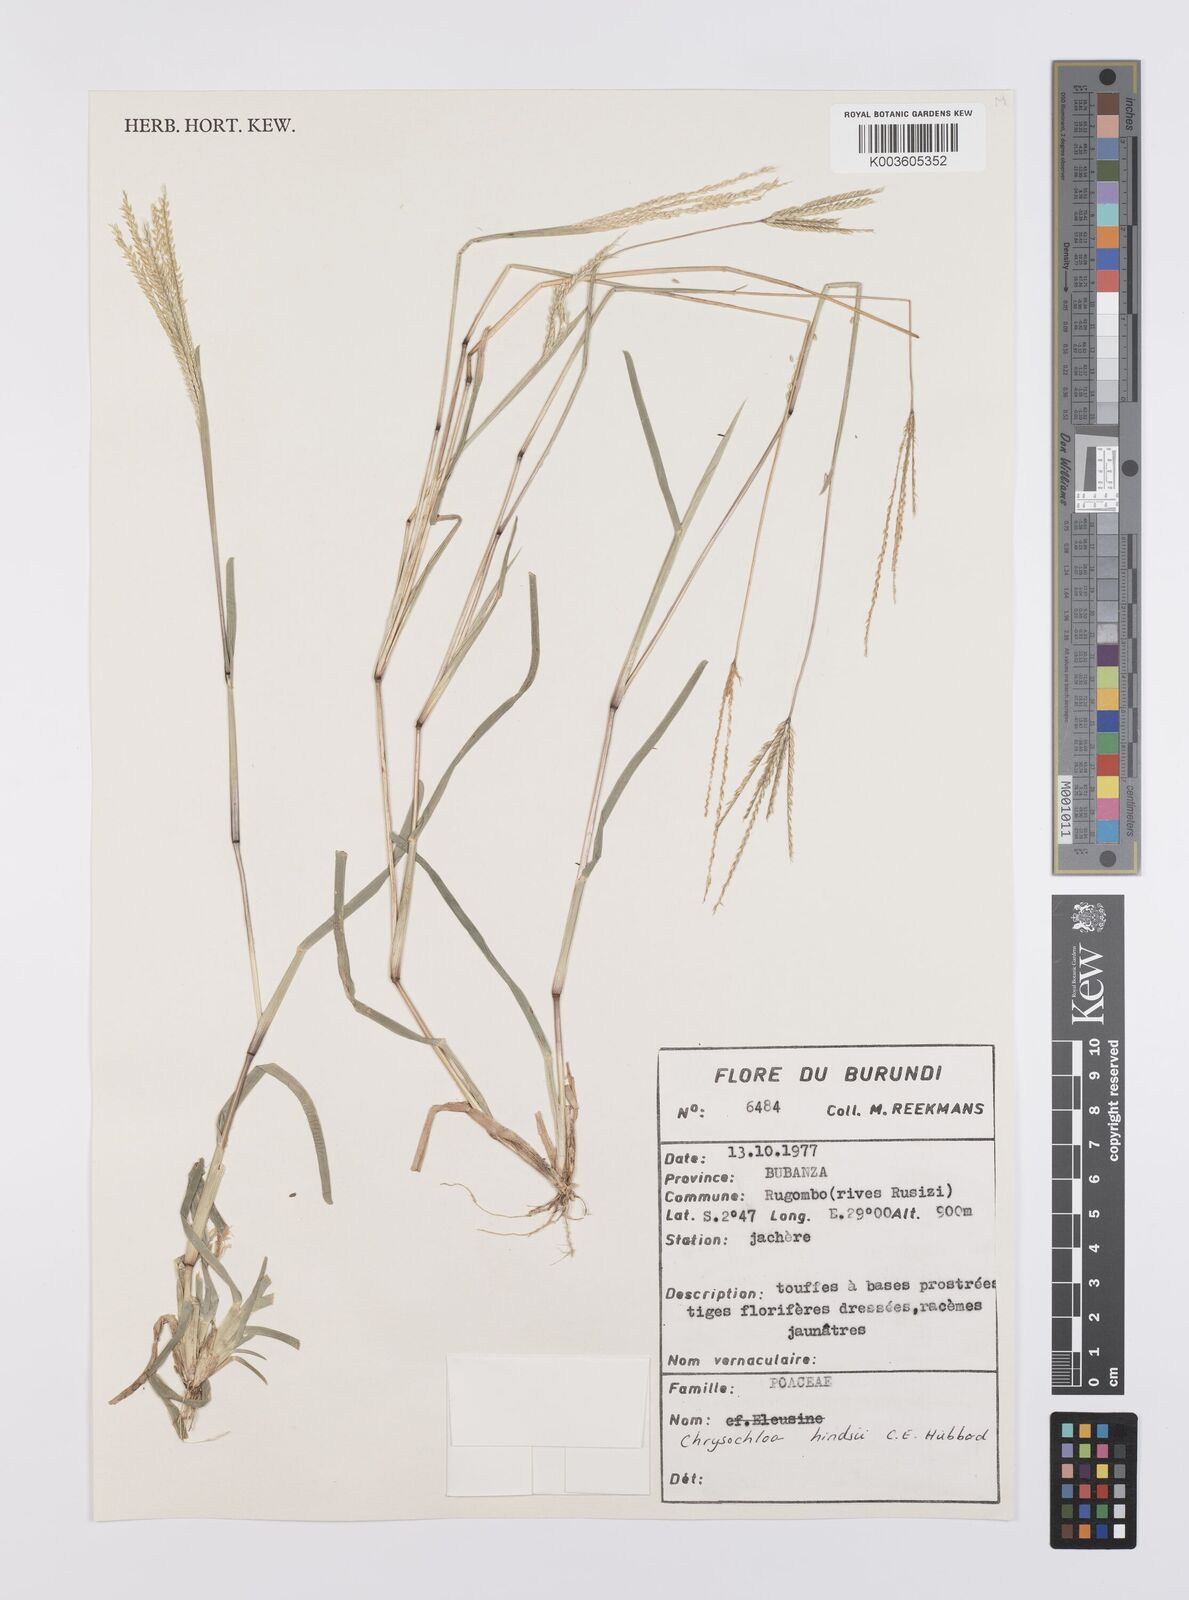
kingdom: Plantae
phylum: Tracheophyta
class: Liliopsida
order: Poales
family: Poaceae
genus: Chrysochloa
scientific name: Chrysochloa hindsii
